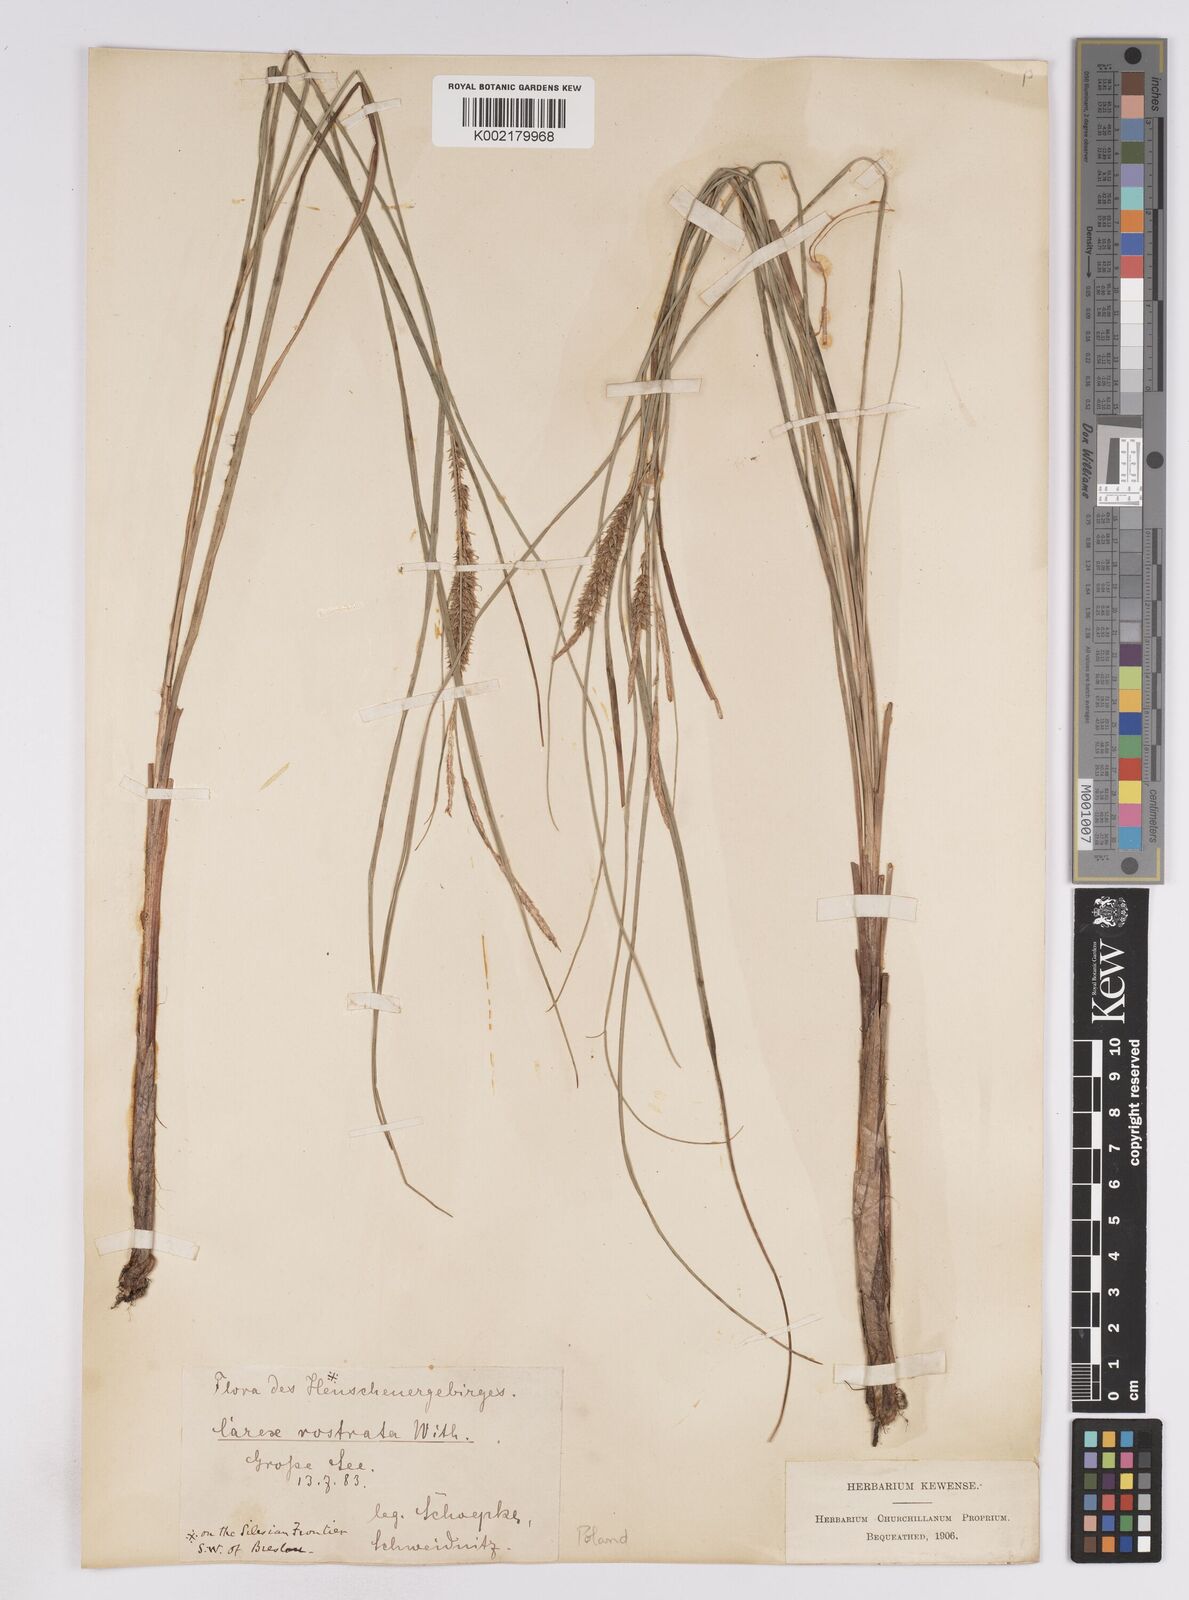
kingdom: Plantae
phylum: Tracheophyta
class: Liliopsida
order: Poales
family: Cyperaceae
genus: Carex
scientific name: Carex utriculata
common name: Beaked sedge
